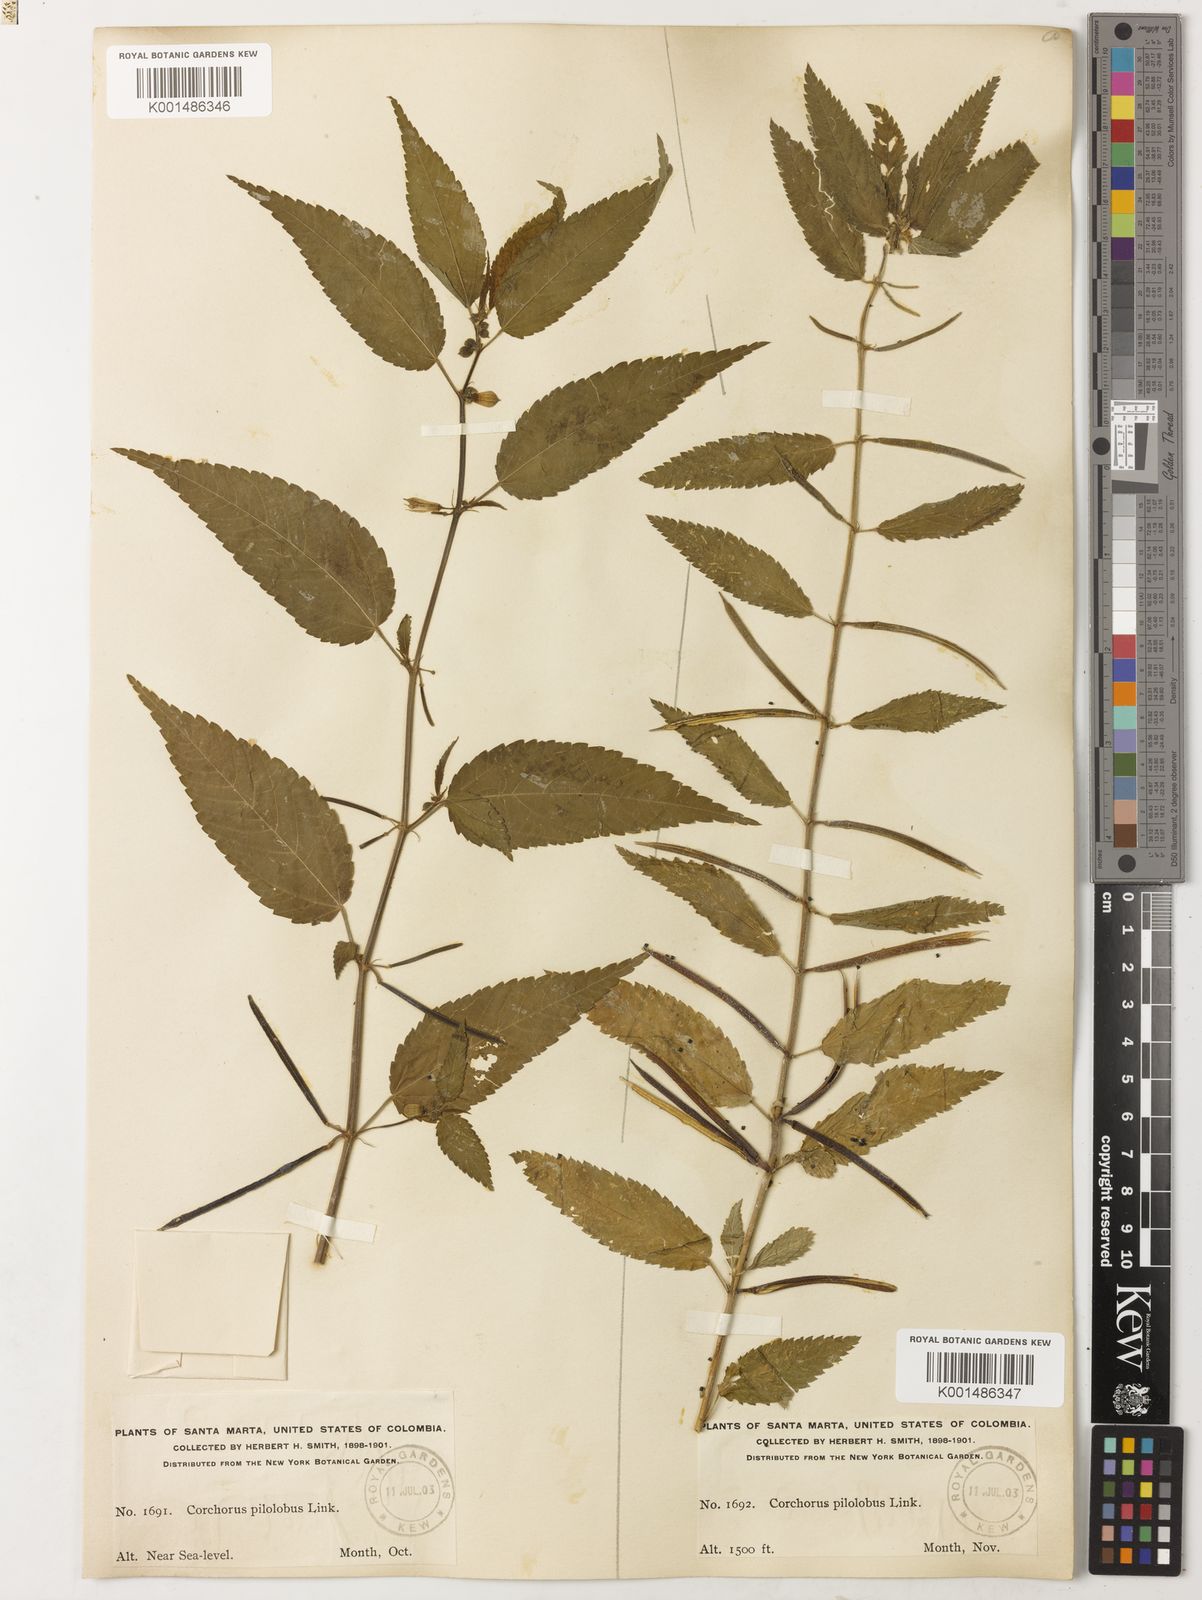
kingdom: Plantae
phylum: Tracheophyta
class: Magnoliopsida
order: Malvales
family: Malvaceae
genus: Corchorus
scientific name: Corchorus orinocensis
